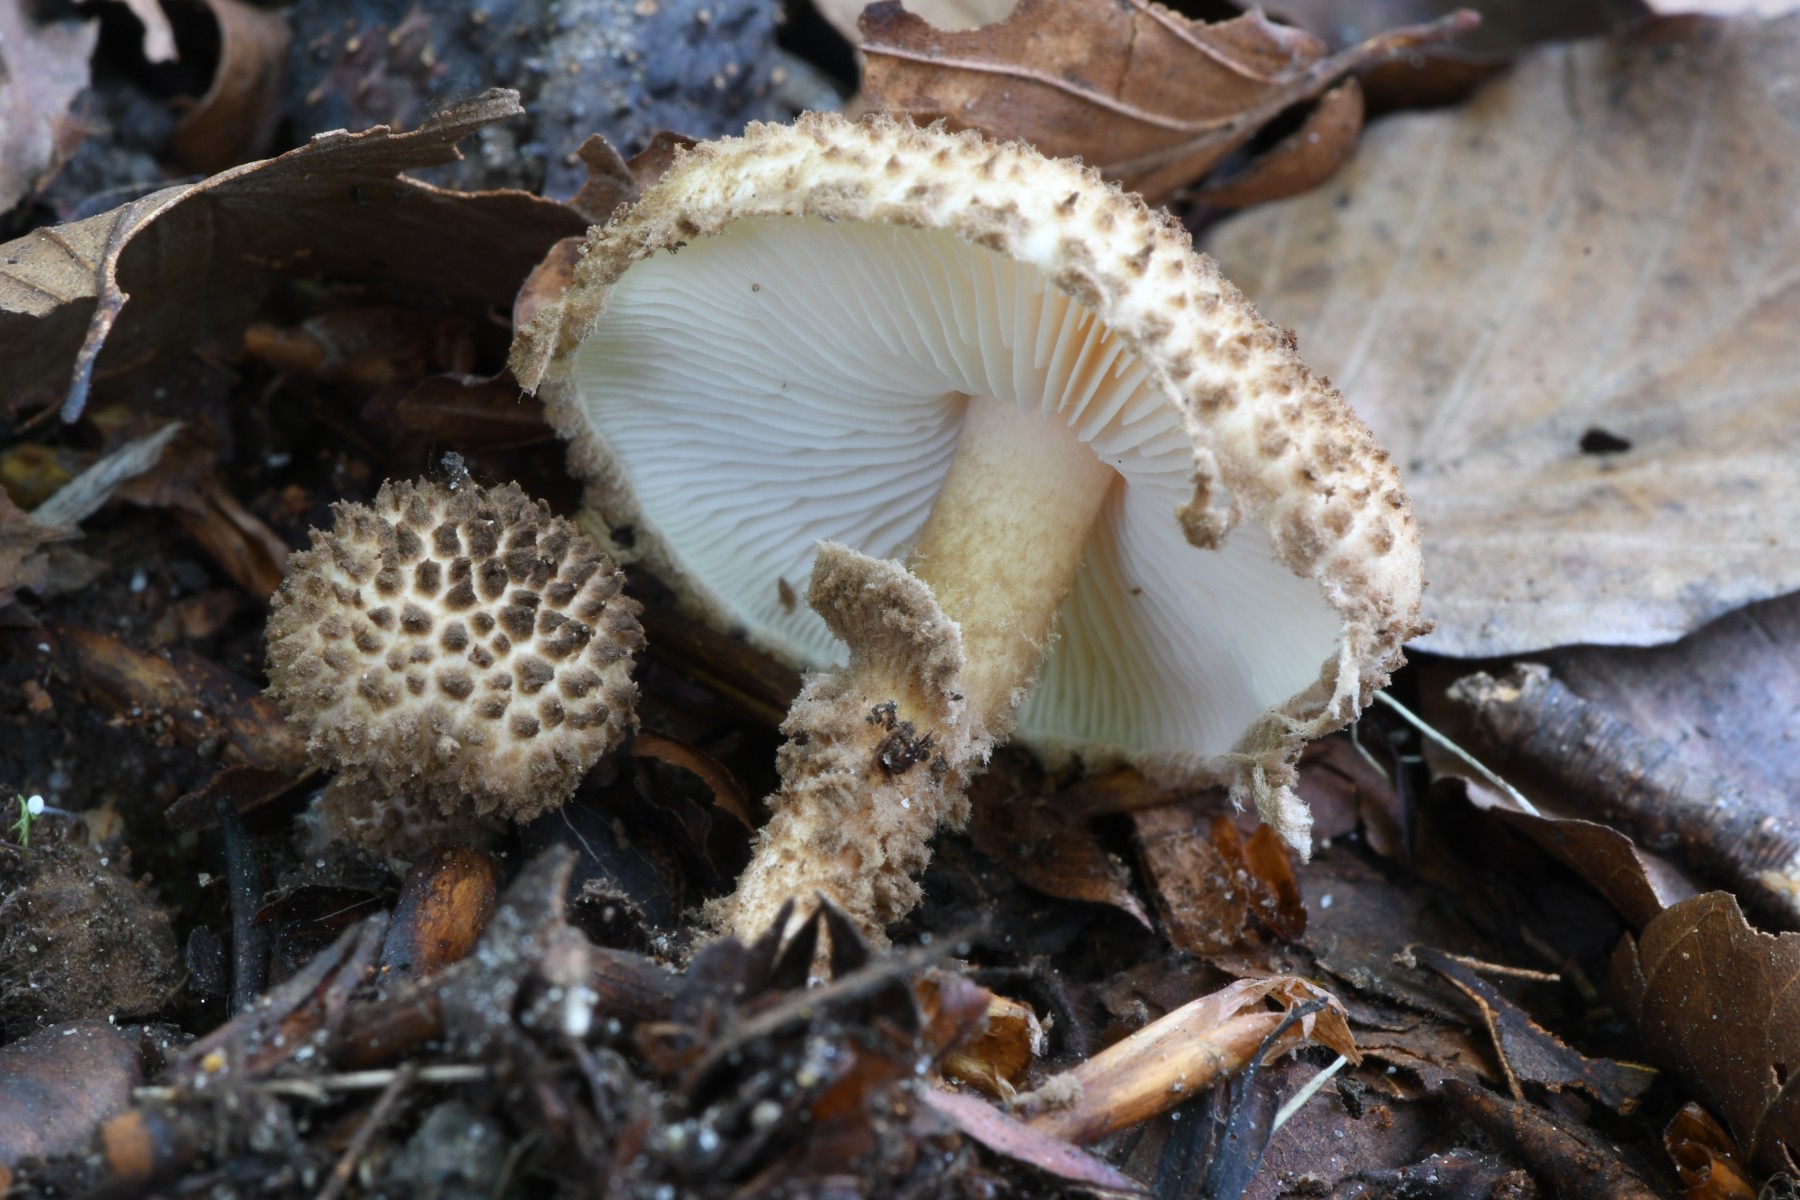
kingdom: Fungi
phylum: Basidiomycota
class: Agaricomycetes
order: Agaricales
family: Agaricaceae
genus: Echinoderma
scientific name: Echinoderma jacobi
